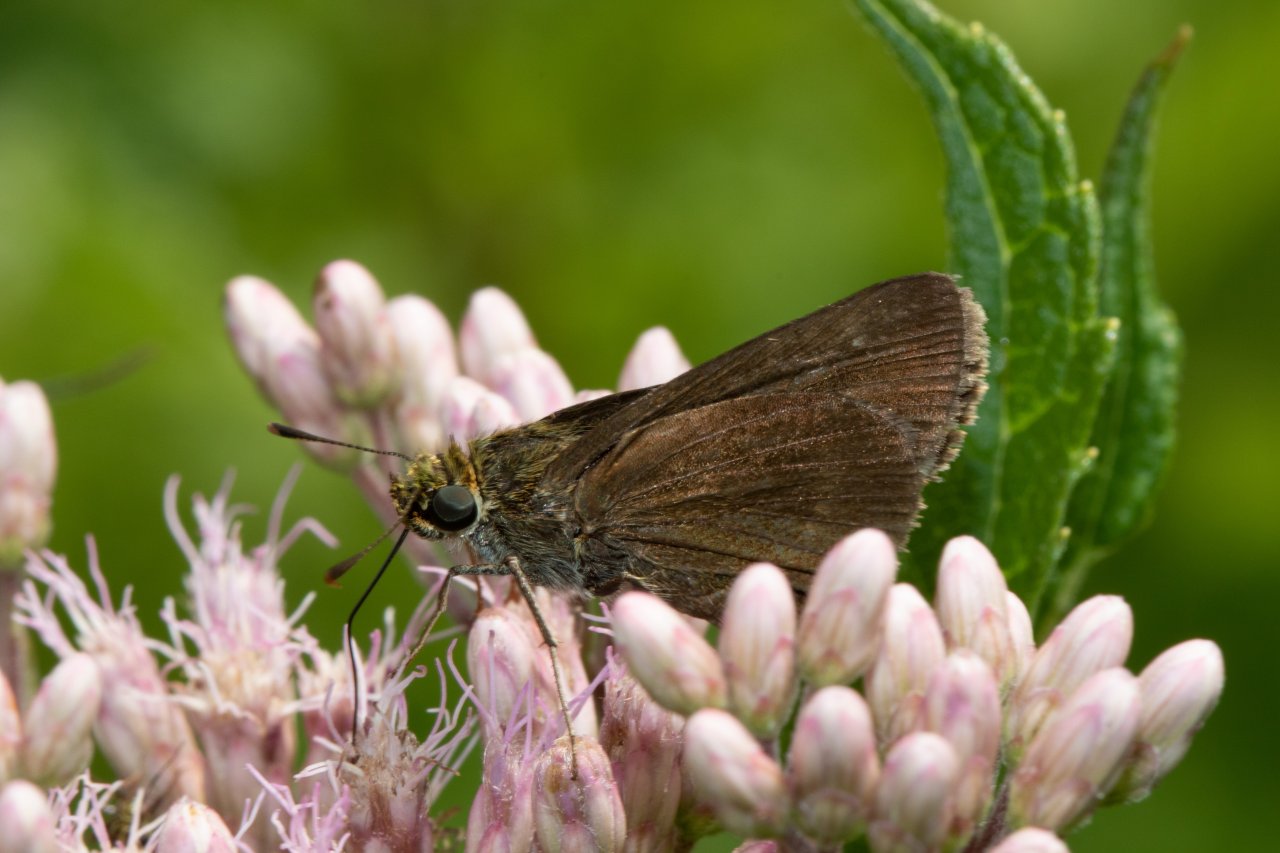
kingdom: Animalia
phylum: Arthropoda
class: Insecta
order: Lepidoptera
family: Hesperiidae
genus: Euphyes
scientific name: Euphyes vestris
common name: Dun Skipper
